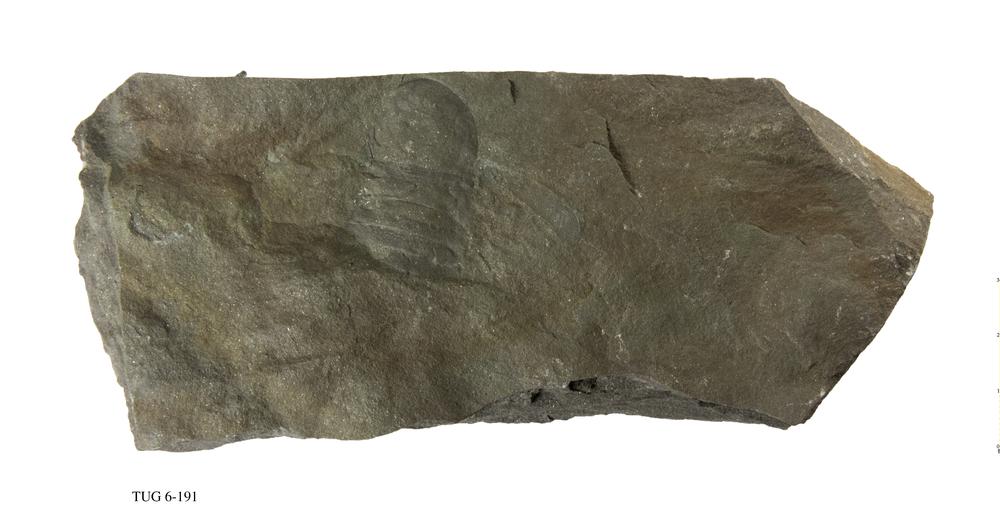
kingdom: Animalia
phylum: Arthropoda
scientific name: Arthropoda
